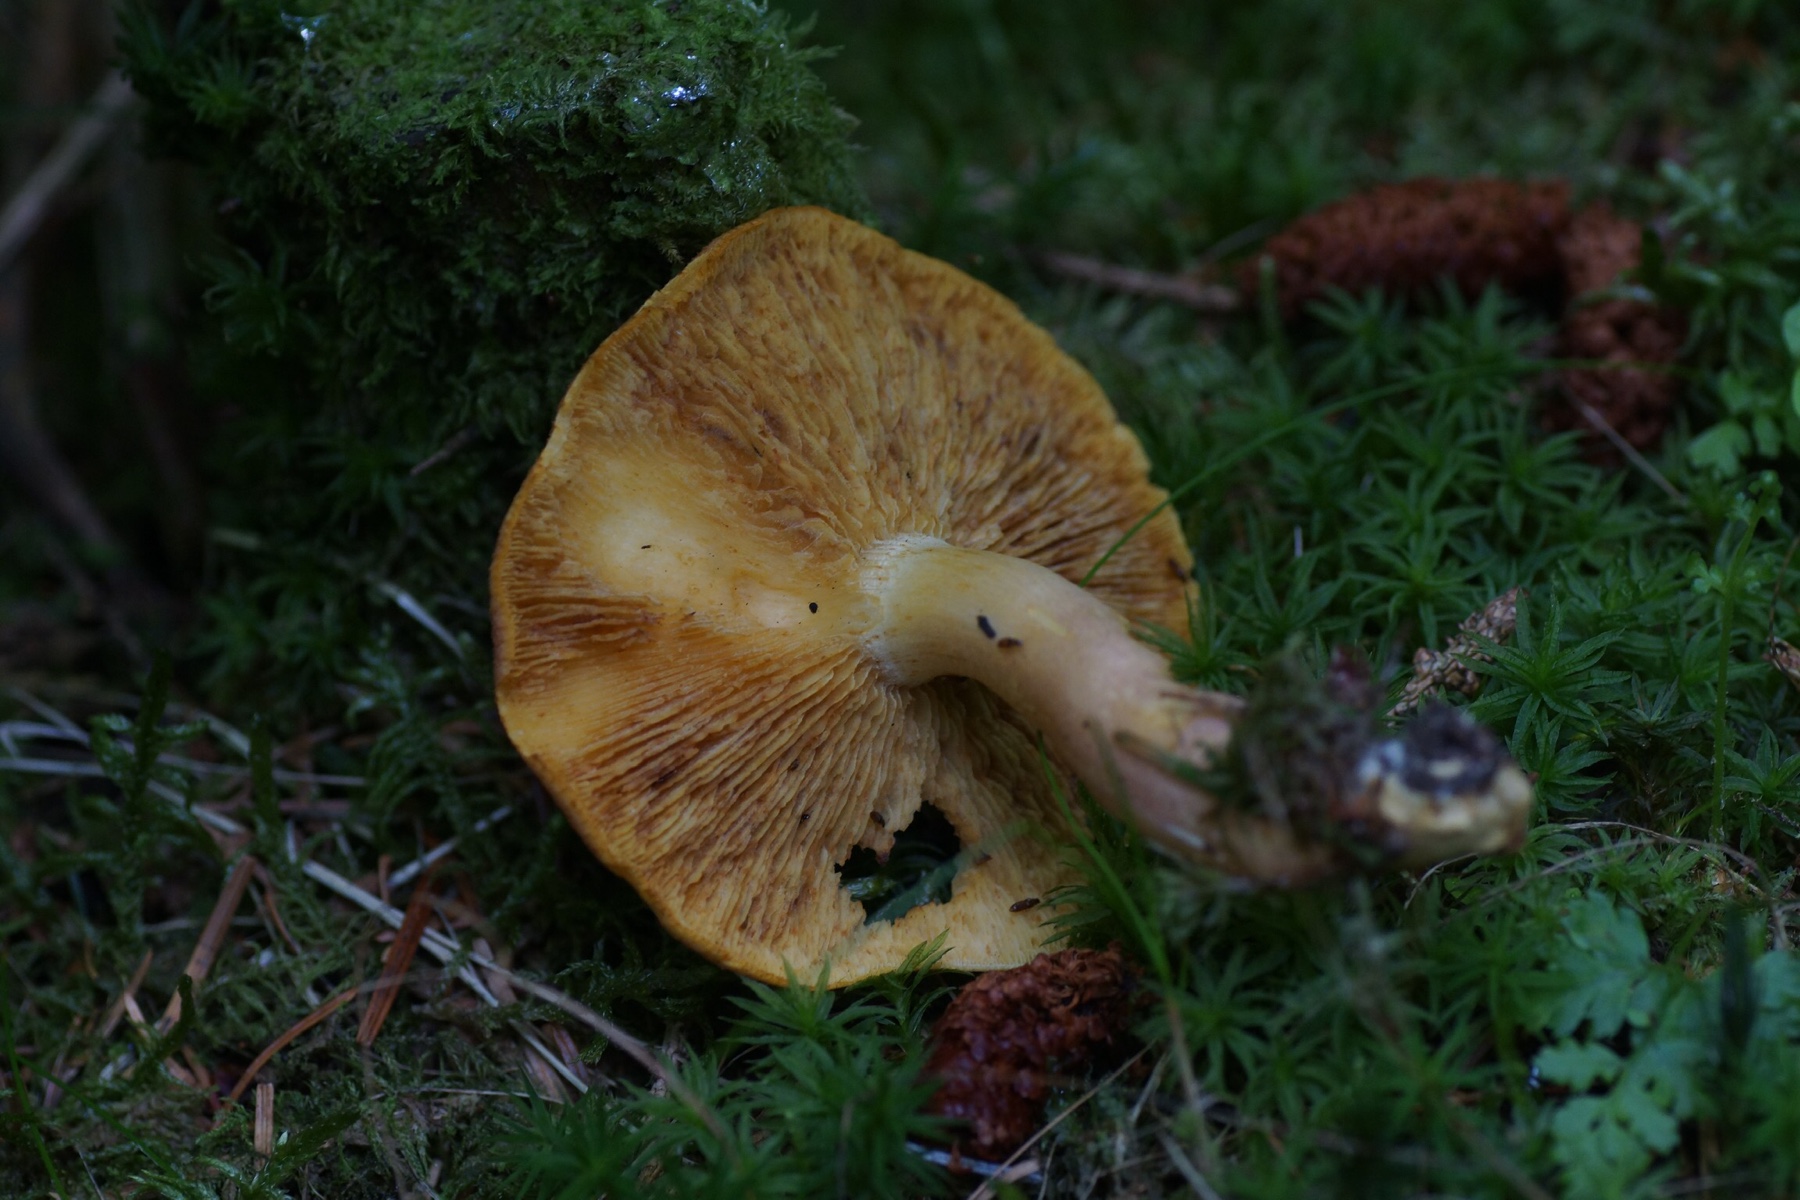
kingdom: Fungi
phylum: Basidiomycota
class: Agaricomycetes
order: Agaricales
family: Tricholomataceae
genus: Tricholomopsis
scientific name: Tricholomopsis rutilans
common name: purpur-væbnerhat
